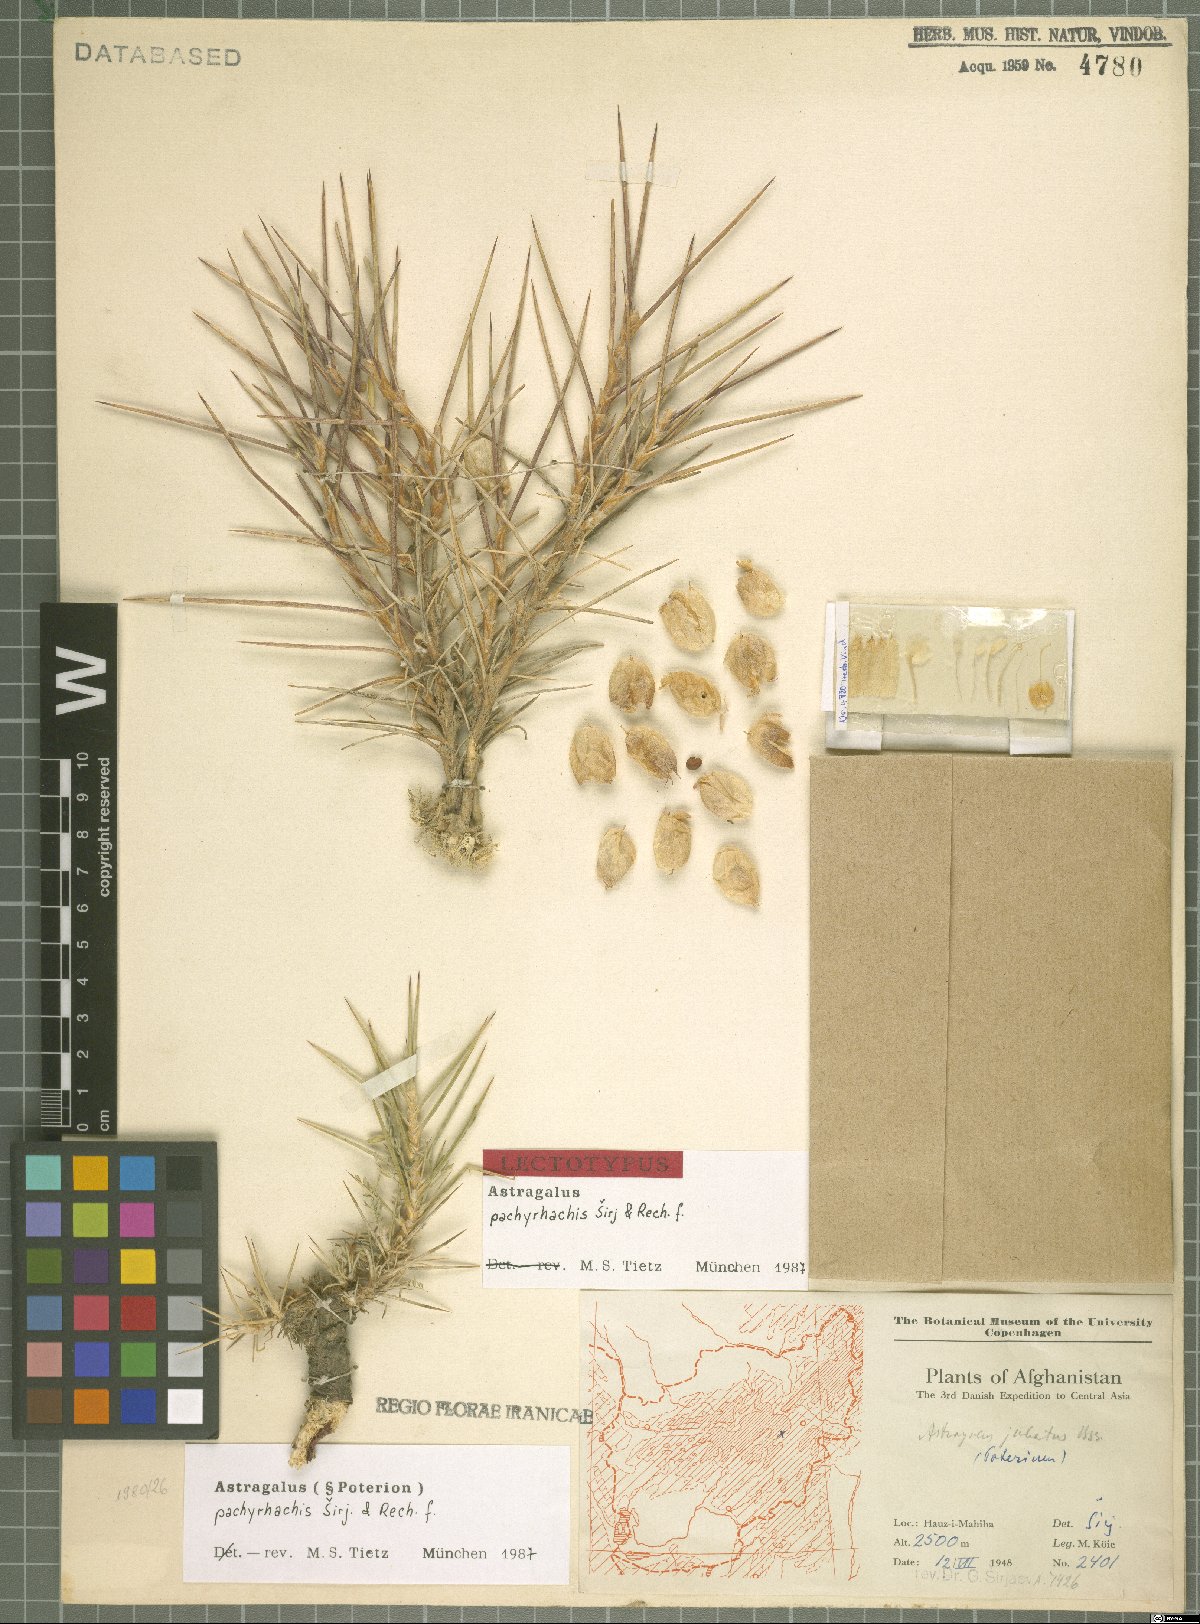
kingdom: Plantae
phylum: Tracheophyta
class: Magnoliopsida
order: Fabales
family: Fabaceae
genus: Astragalus
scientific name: Astragalus pachyrhachis
